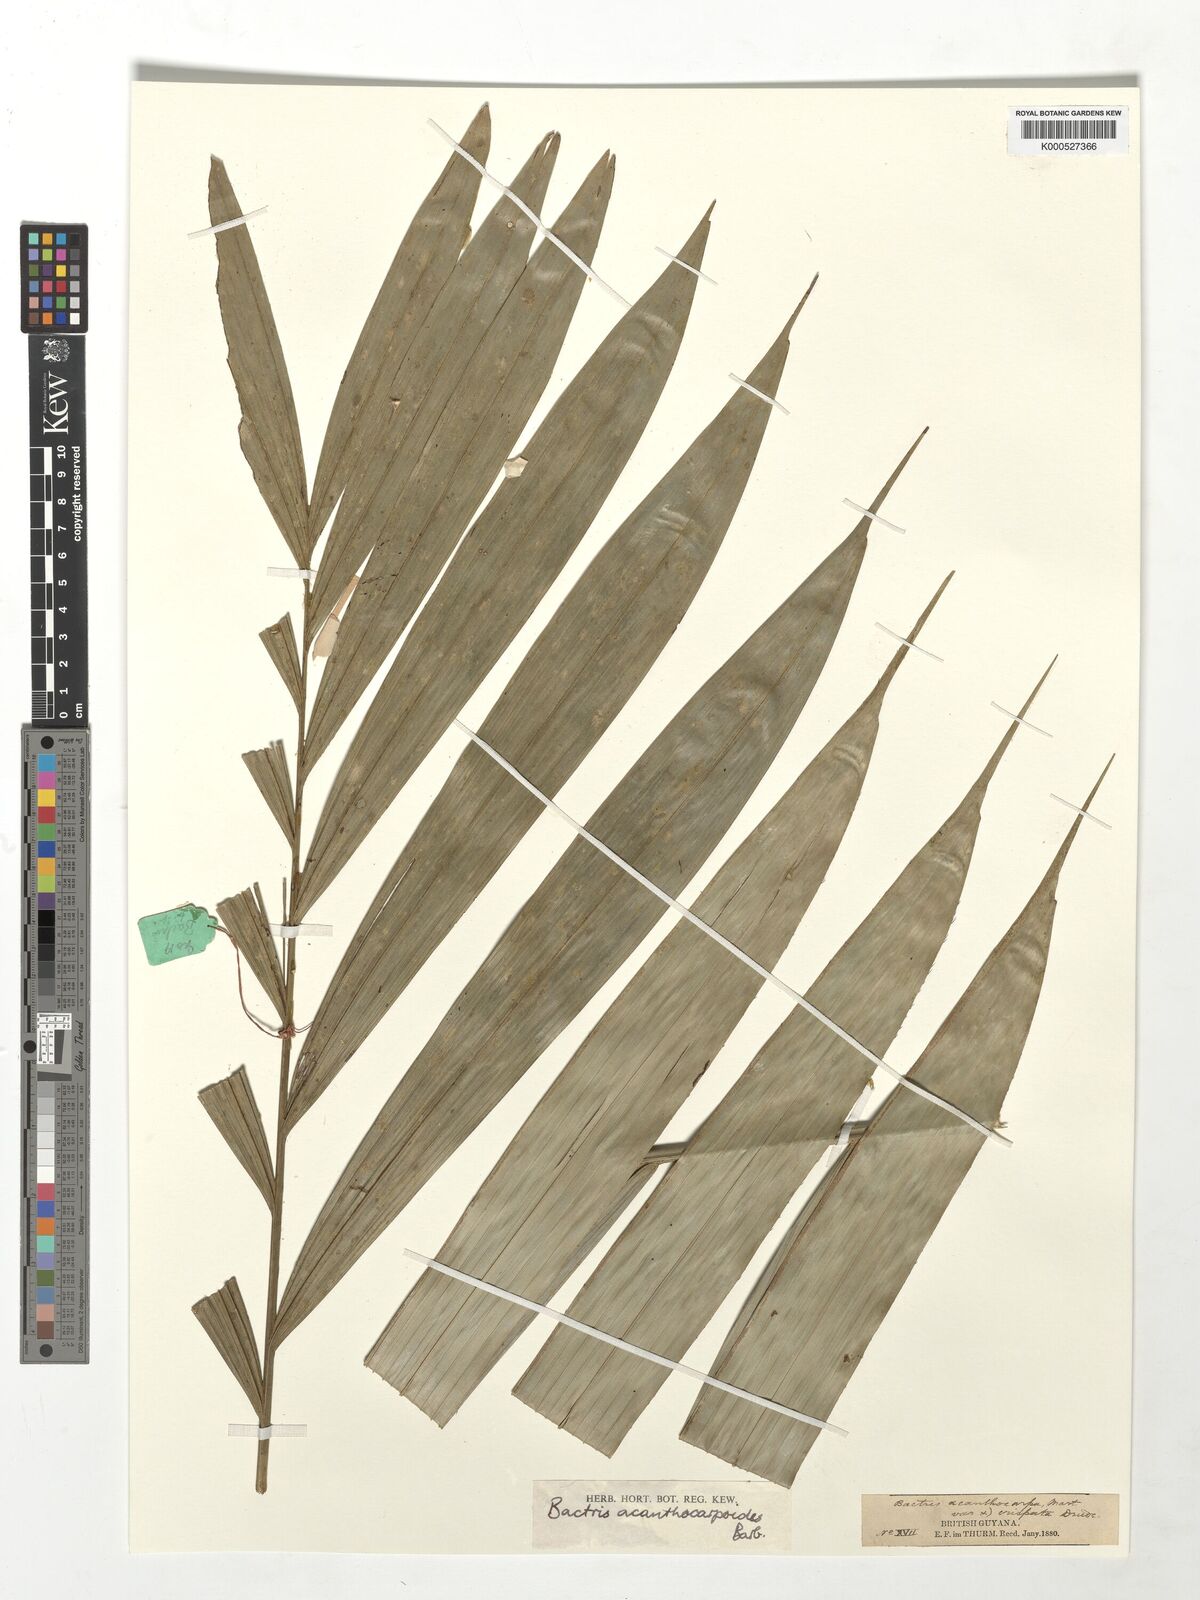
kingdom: Plantae
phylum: Tracheophyta
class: Liliopsida
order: Arecales
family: Arecaceae
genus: Bactris
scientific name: Bactris acanthocarpoides
